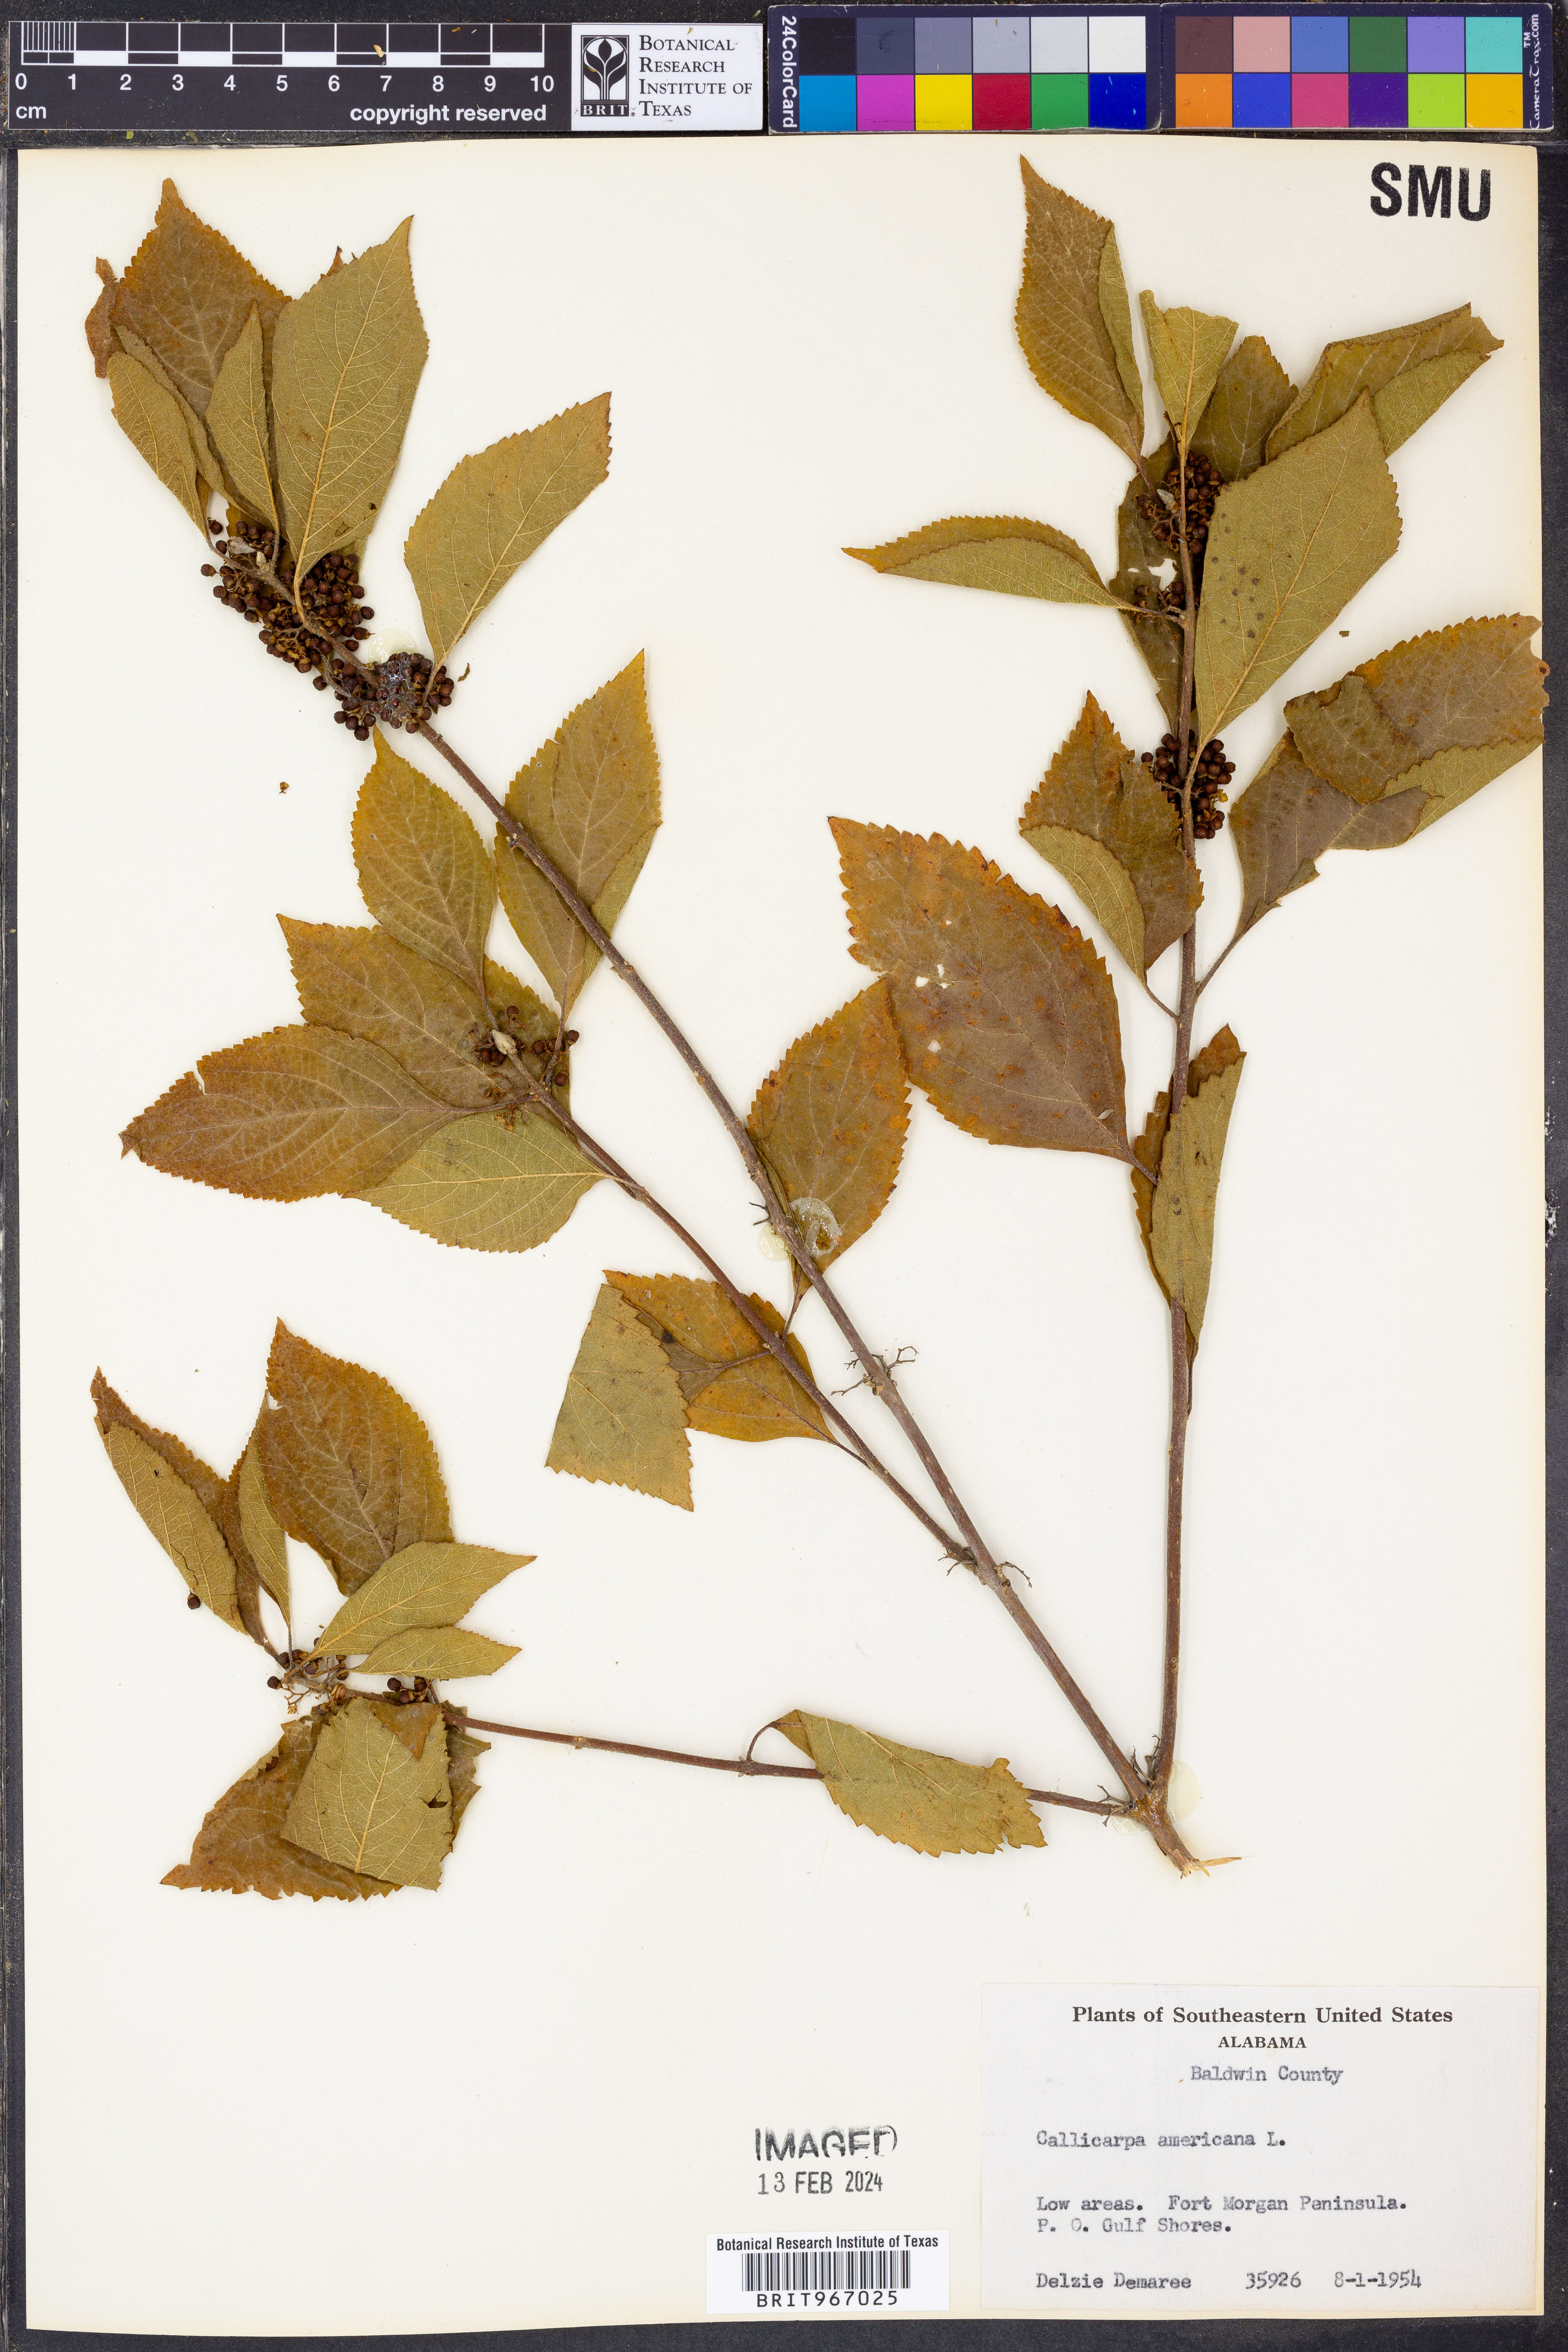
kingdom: Plantae
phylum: Tracheophyta
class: Magnoliopsida
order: Lamiales
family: Lamiaceae
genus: Callicarpa
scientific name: Callicarpa americana
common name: American beautyberry
